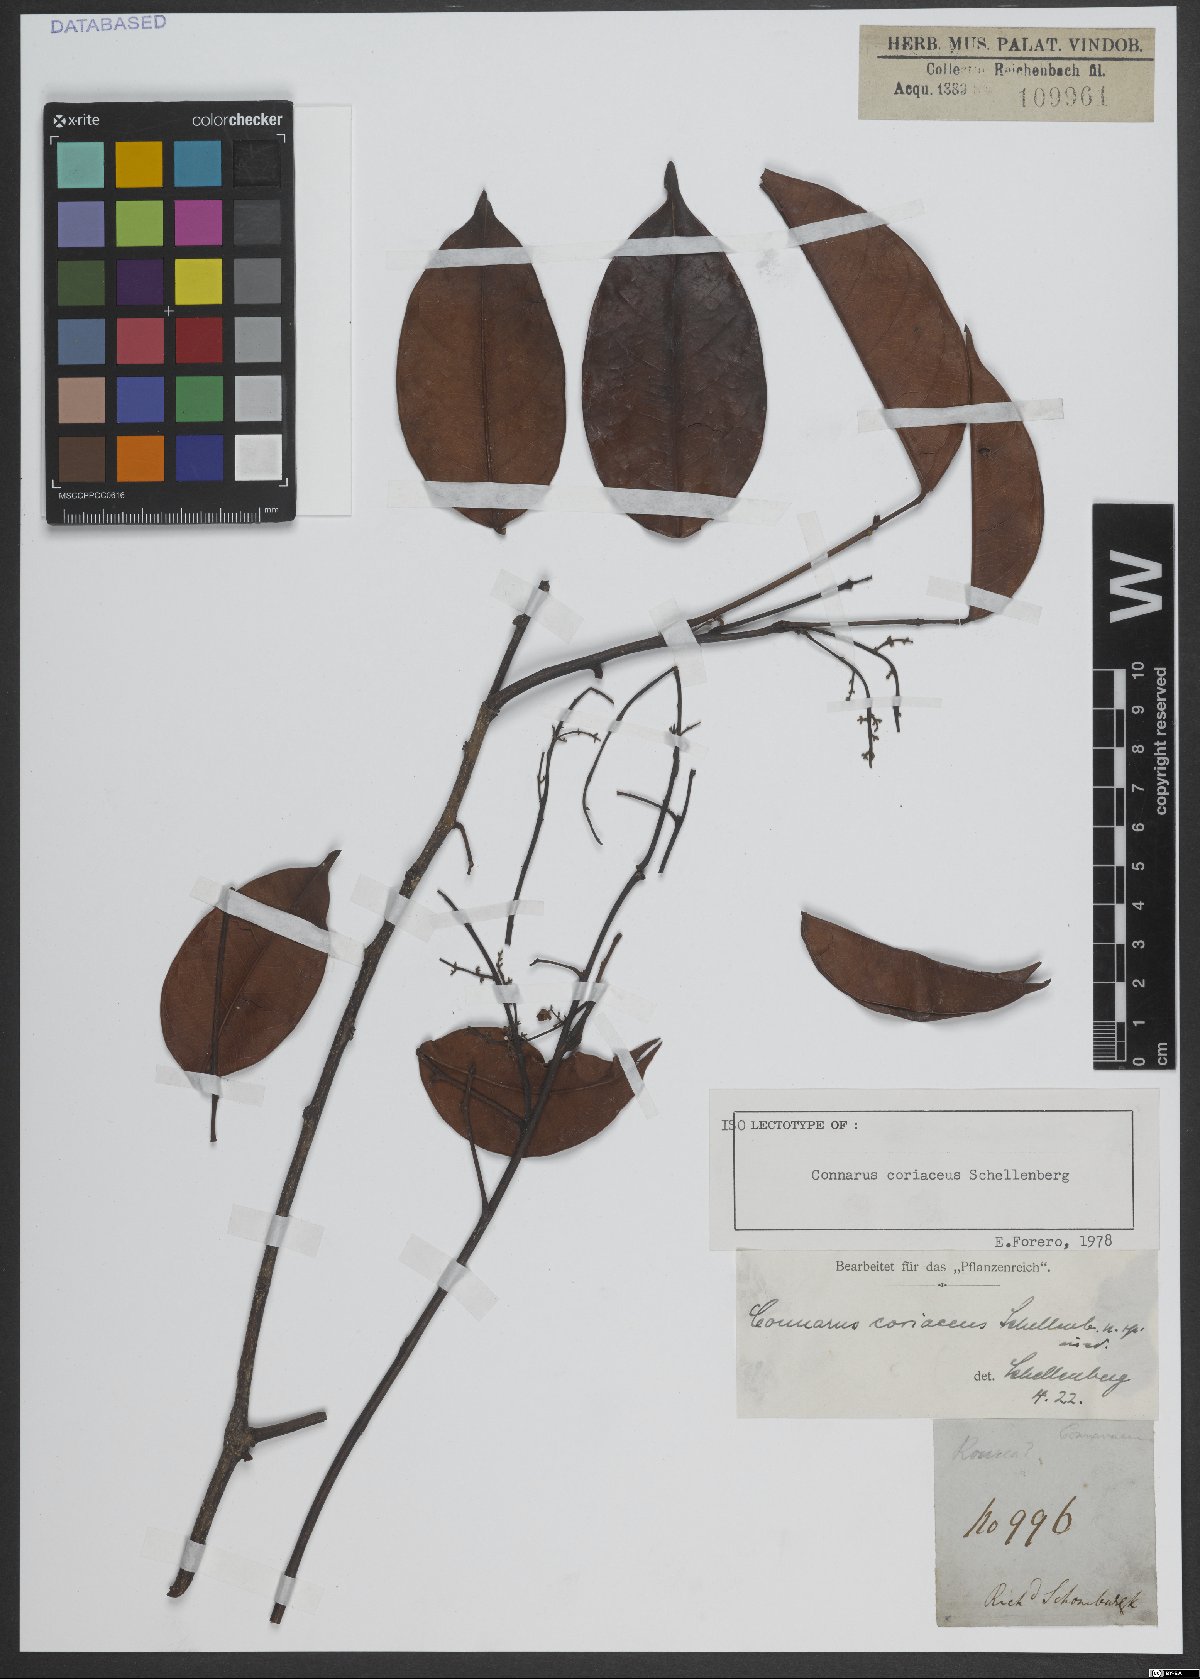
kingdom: Plantae
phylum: Tracheophyta
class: Magnoliopsida
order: Oxalidales
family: Connaraceae
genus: Connarus
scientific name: Connarus coriaceus
